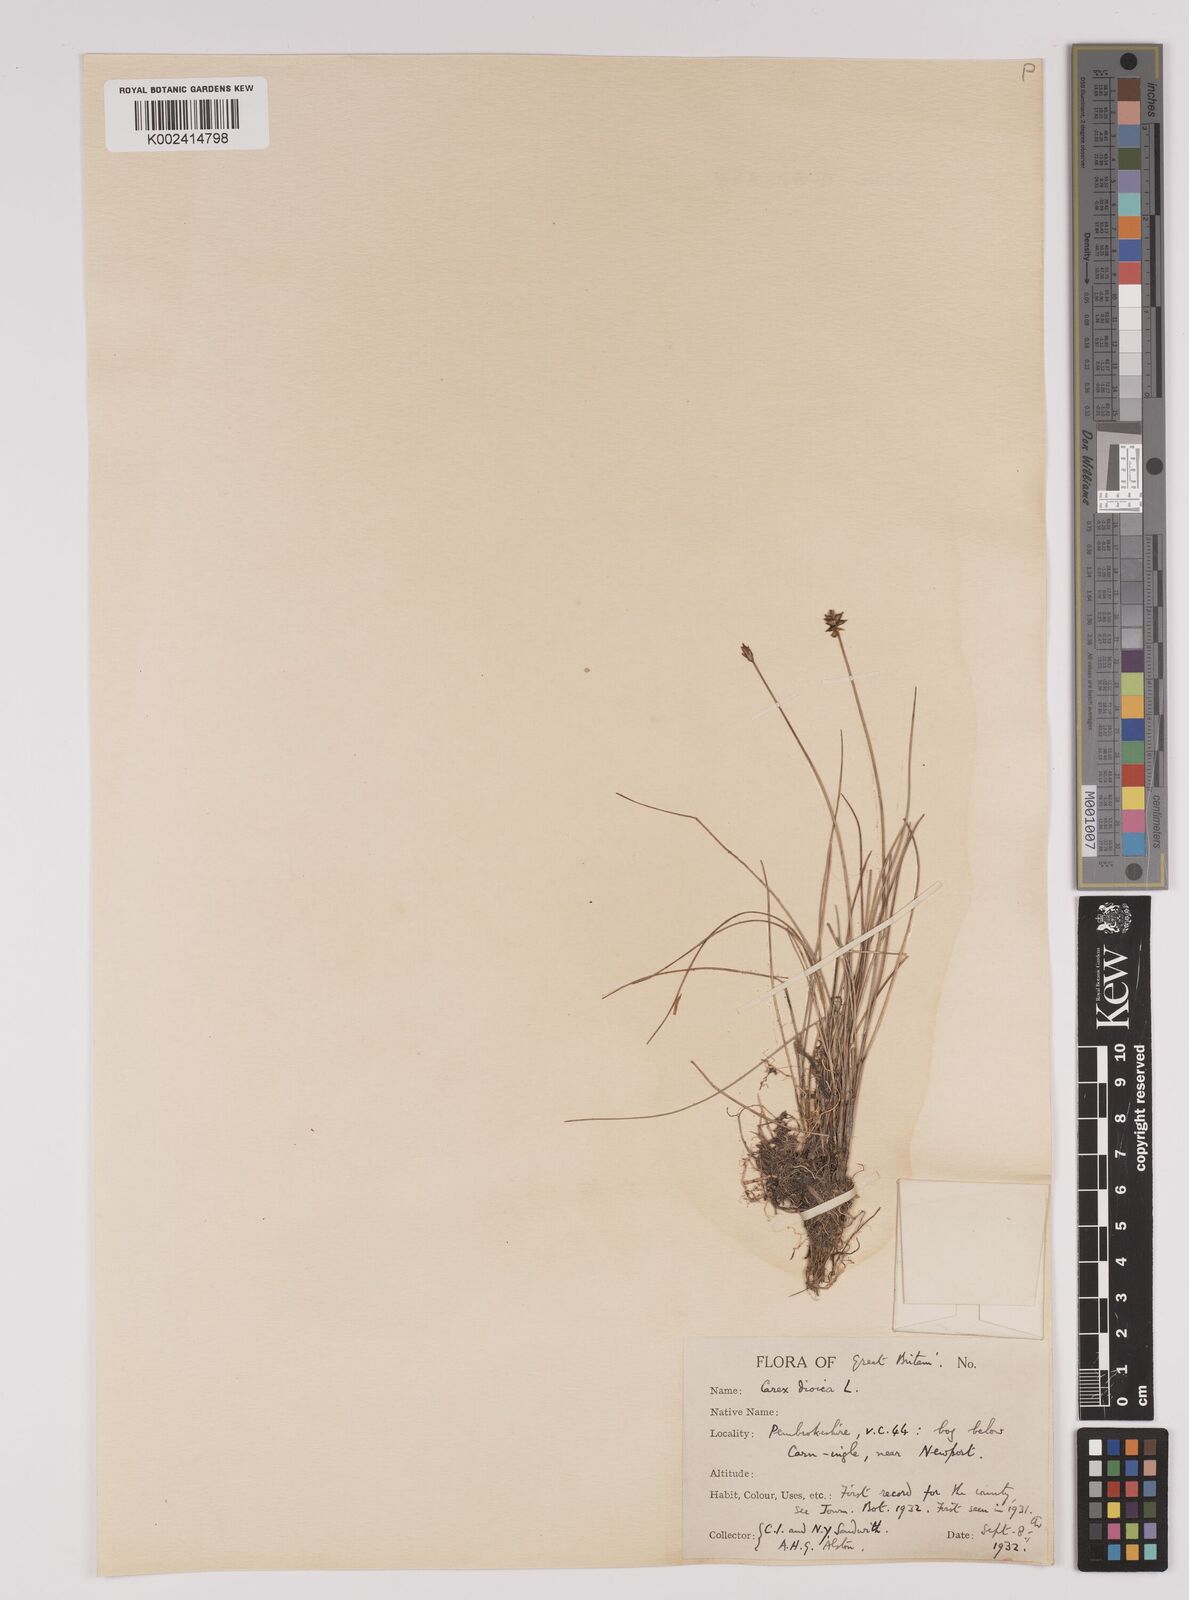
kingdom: Plantae
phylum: Tracheophyta
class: Liliopsida
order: Poales
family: Cyperaceae
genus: Carex
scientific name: Carex dioica
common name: Dioecious sedge
